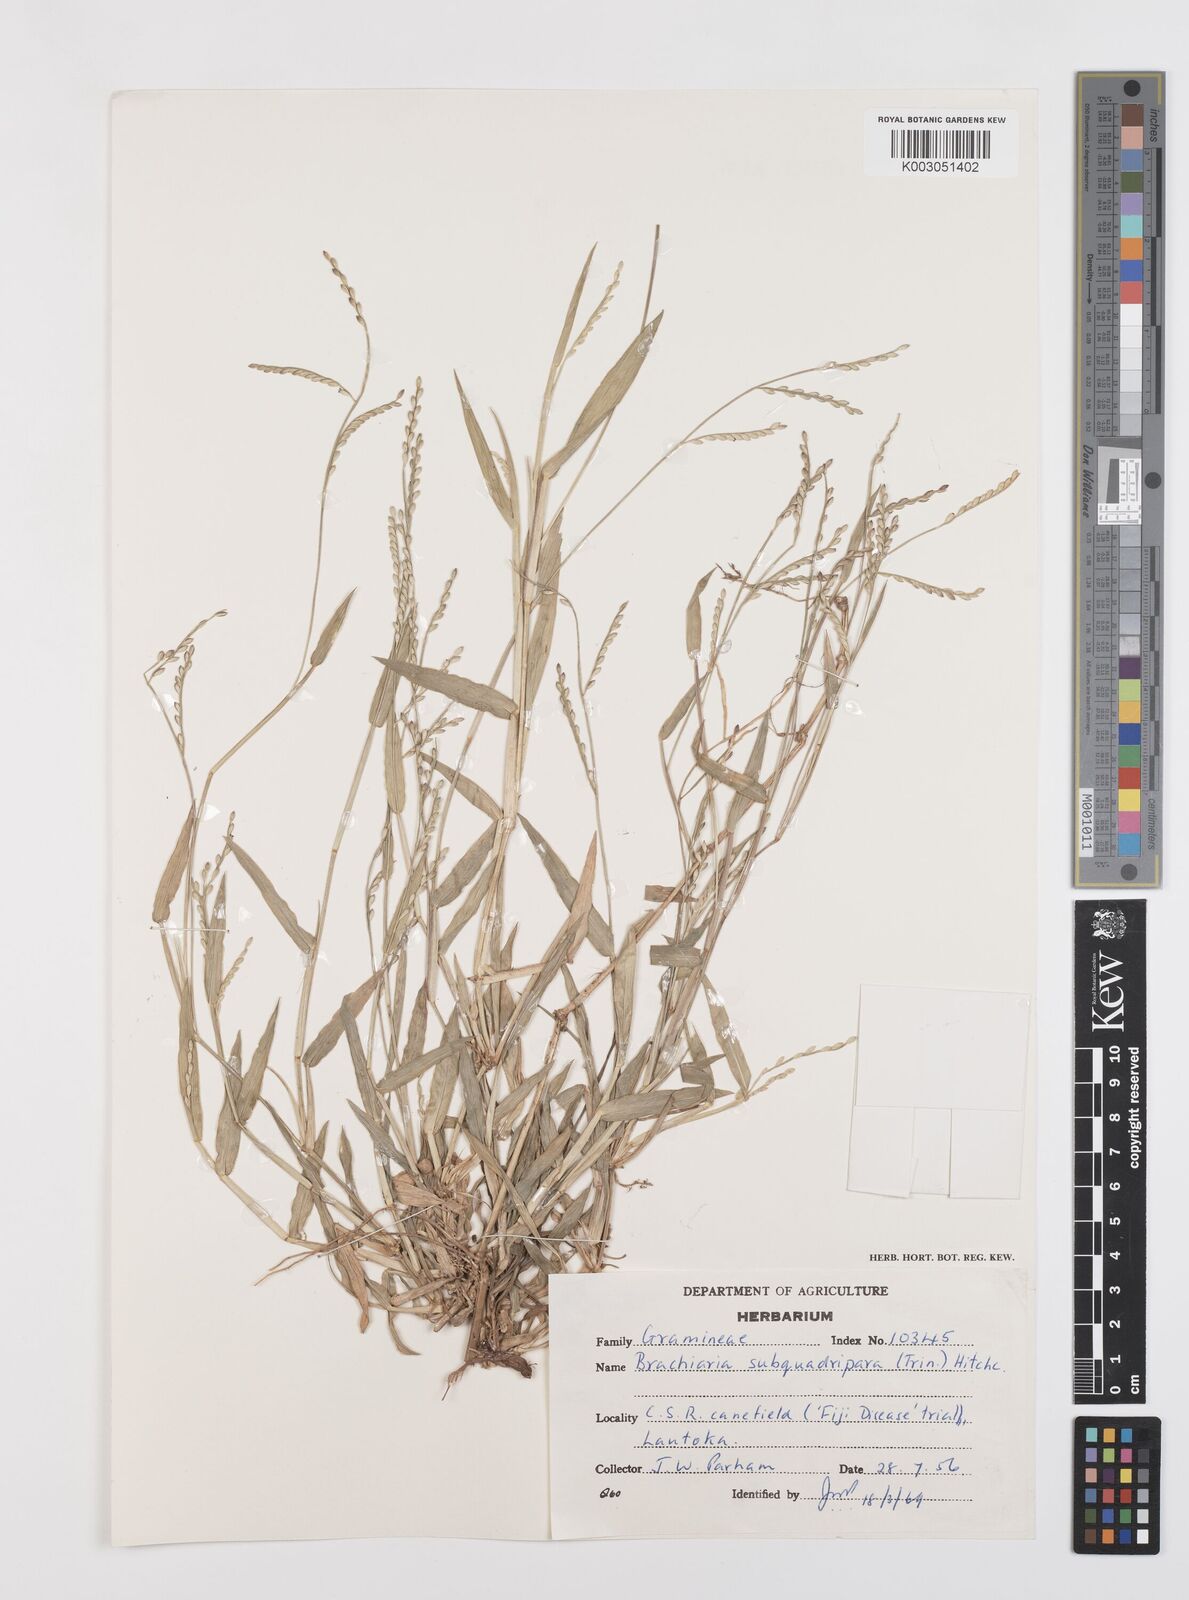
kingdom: Plantae
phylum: Tracheophyta
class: Liliopsida
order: Poales
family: Poaceae
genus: Urochloa
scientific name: Urochloa subquadripara
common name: Armgrass millet
